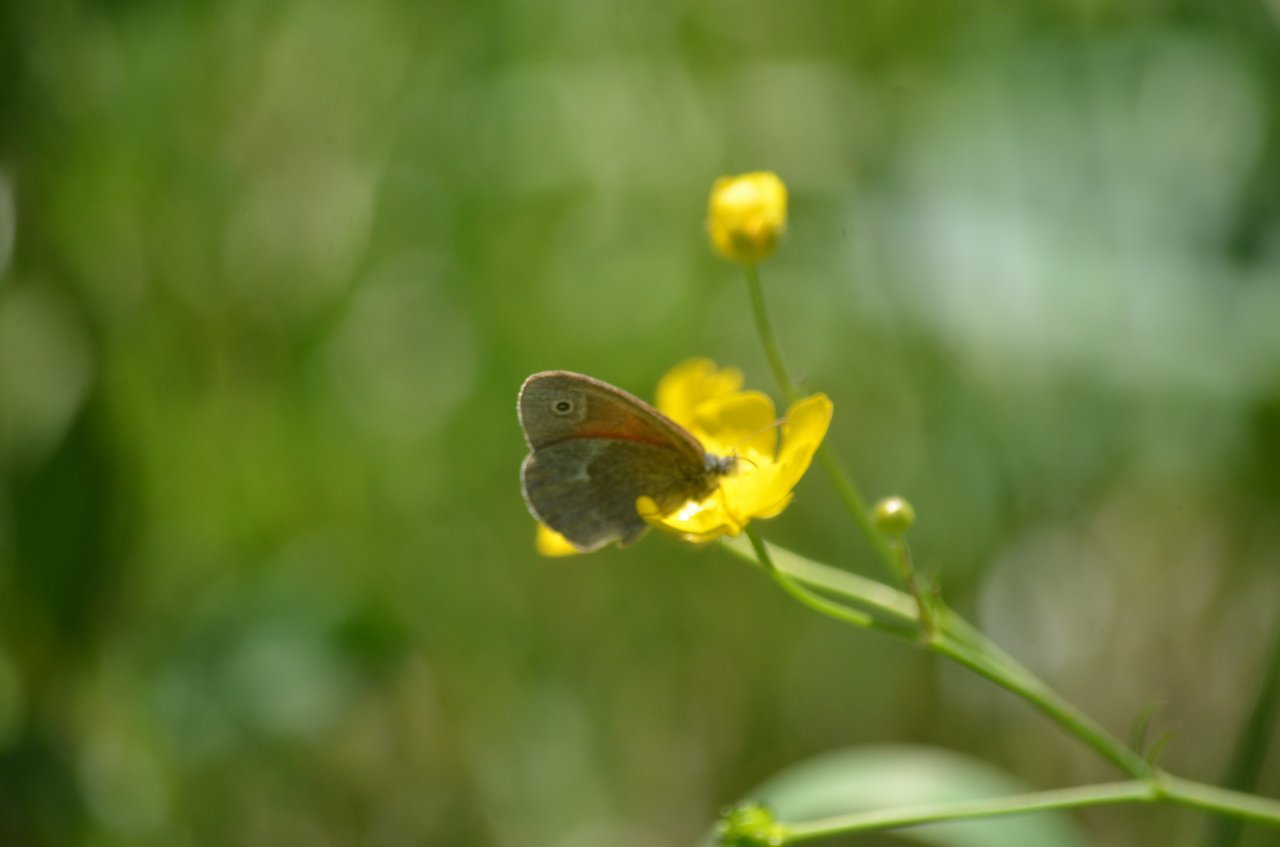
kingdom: Animalia
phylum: Arthropoda
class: Insecta
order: Lepidoptera
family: Nymphalidae
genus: Coenonympha
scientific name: Coenonympha tullia
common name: Large Heath
